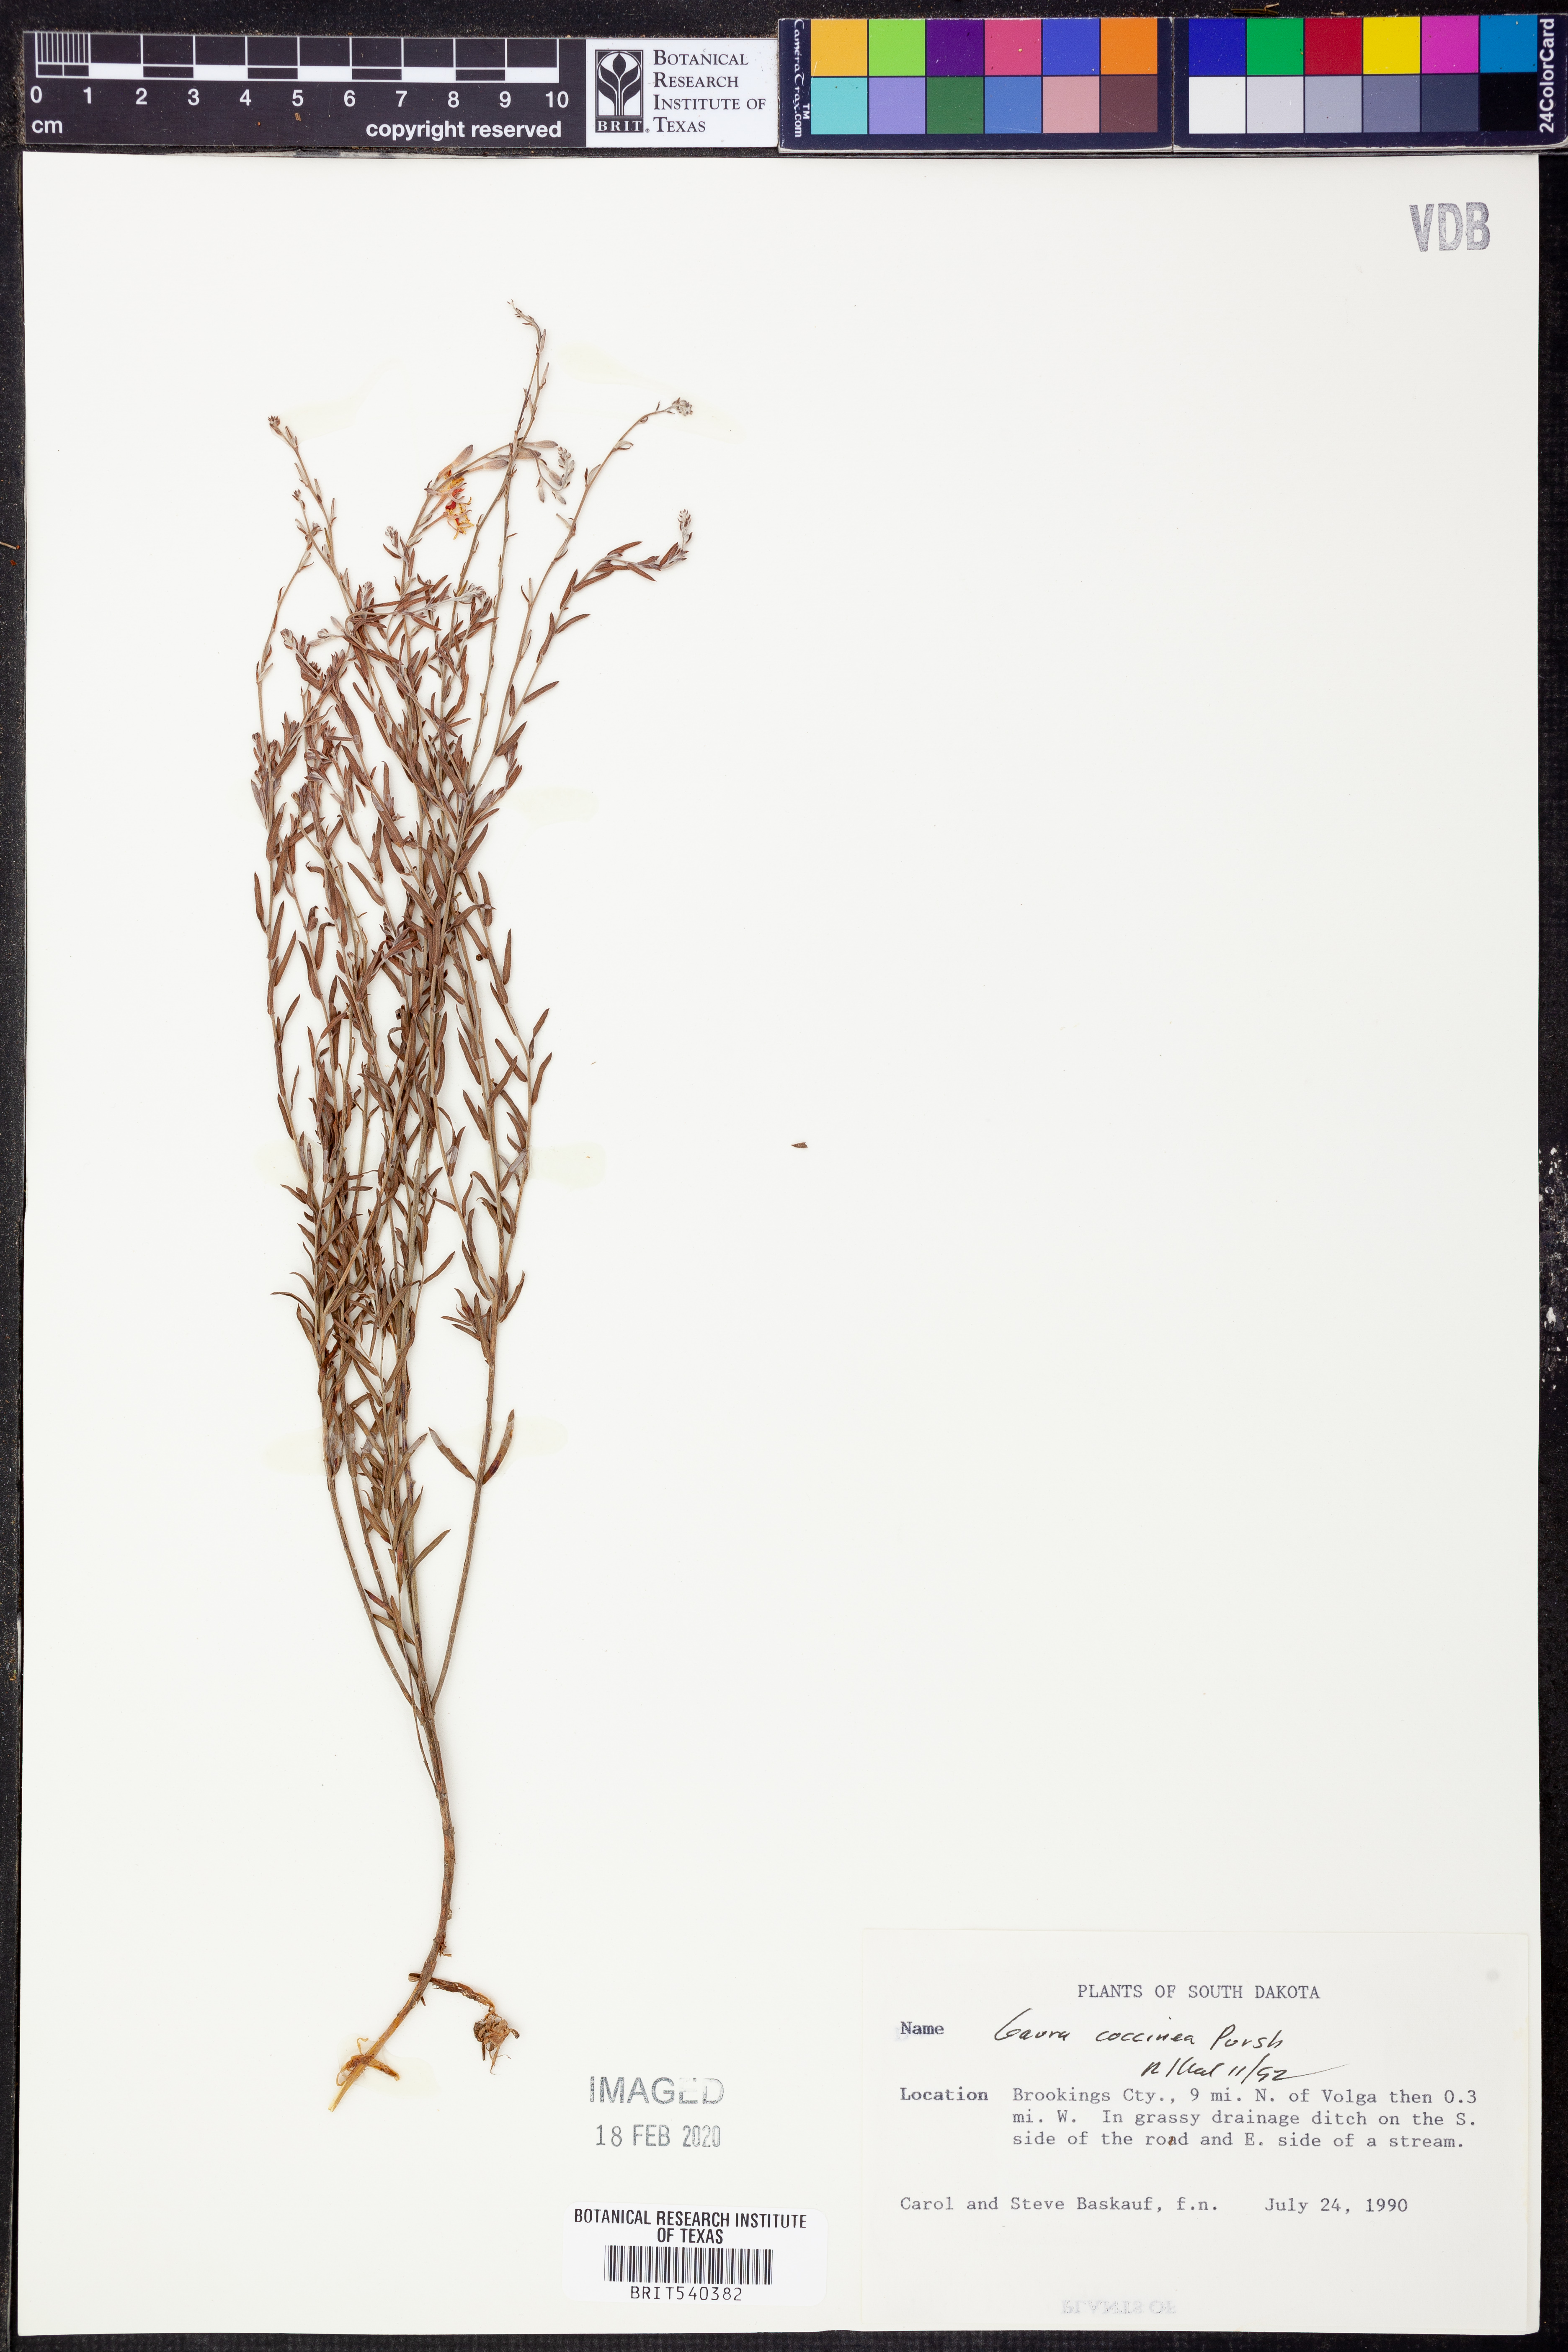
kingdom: Plantae
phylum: Tracheophyta
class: Magnoliopsida
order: Myrtales
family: Onagraceae
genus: Oenothera
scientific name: Oenothera suffrutescens
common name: Scarlet beeblossom
